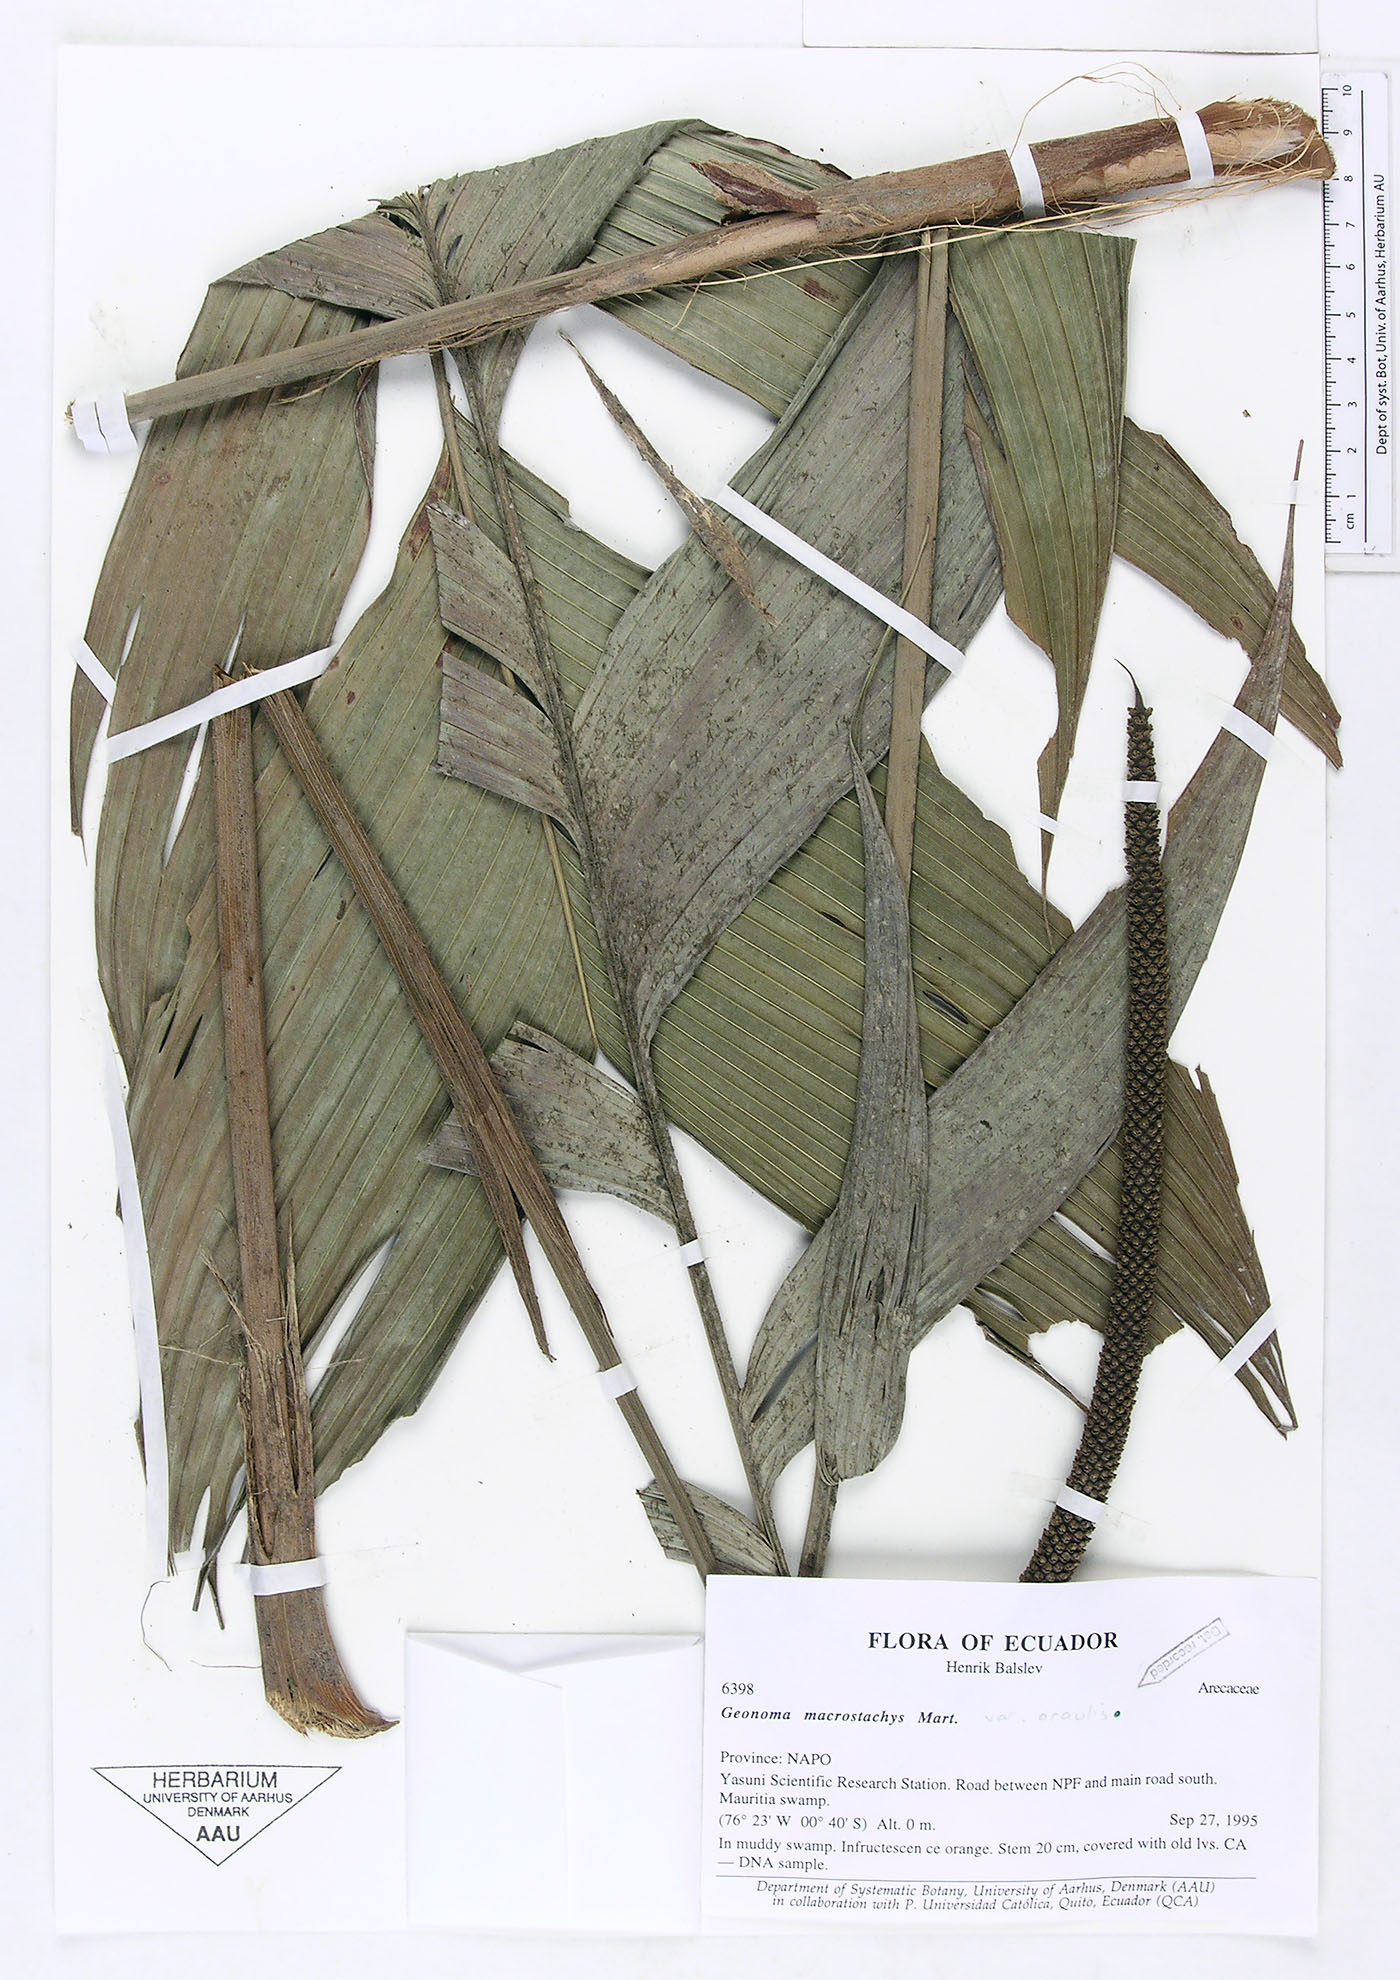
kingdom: Plantae
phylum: Tracheophyta
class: Liliopsida
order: Arecales
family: Arecaceae
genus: Geonoma
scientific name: Geonoma macrostachys
